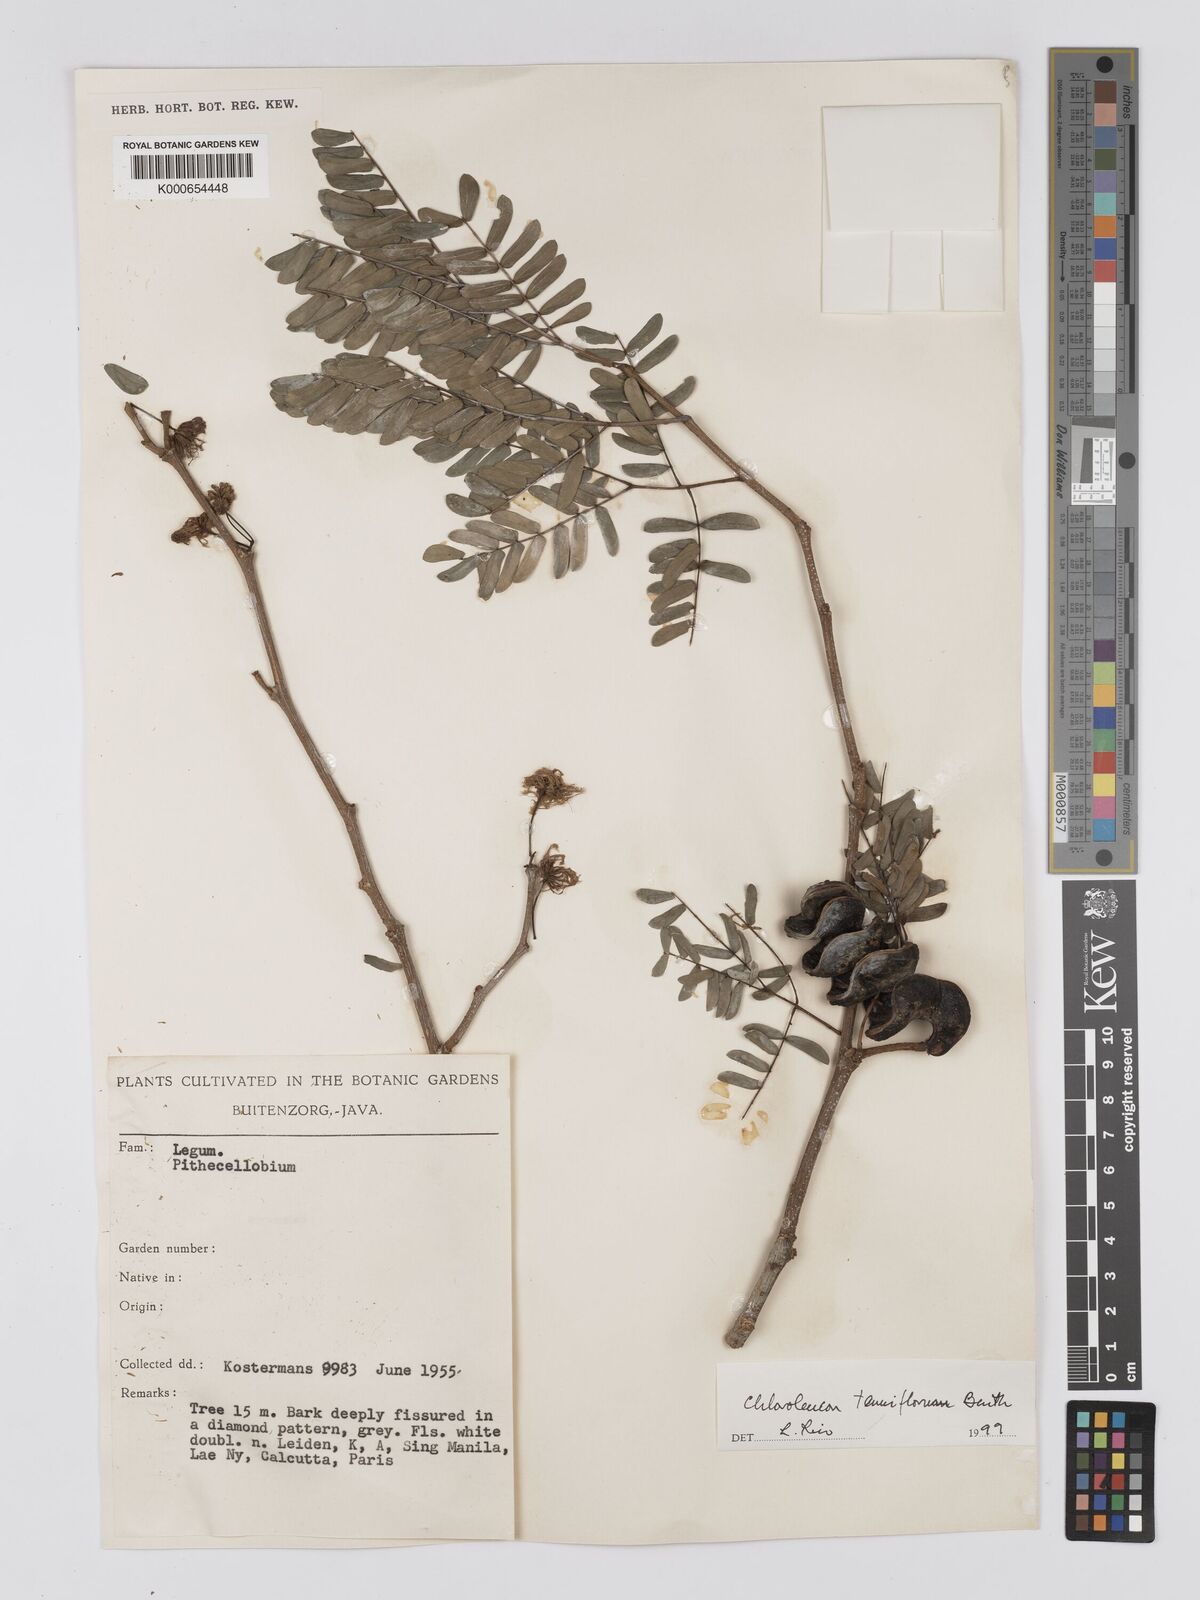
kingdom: Plantae
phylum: Tracheophyta
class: Magnoliopsida
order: Fabales
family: Fabaceae
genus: Chloroleucon
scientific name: Chloroleucon tenuiflorum
